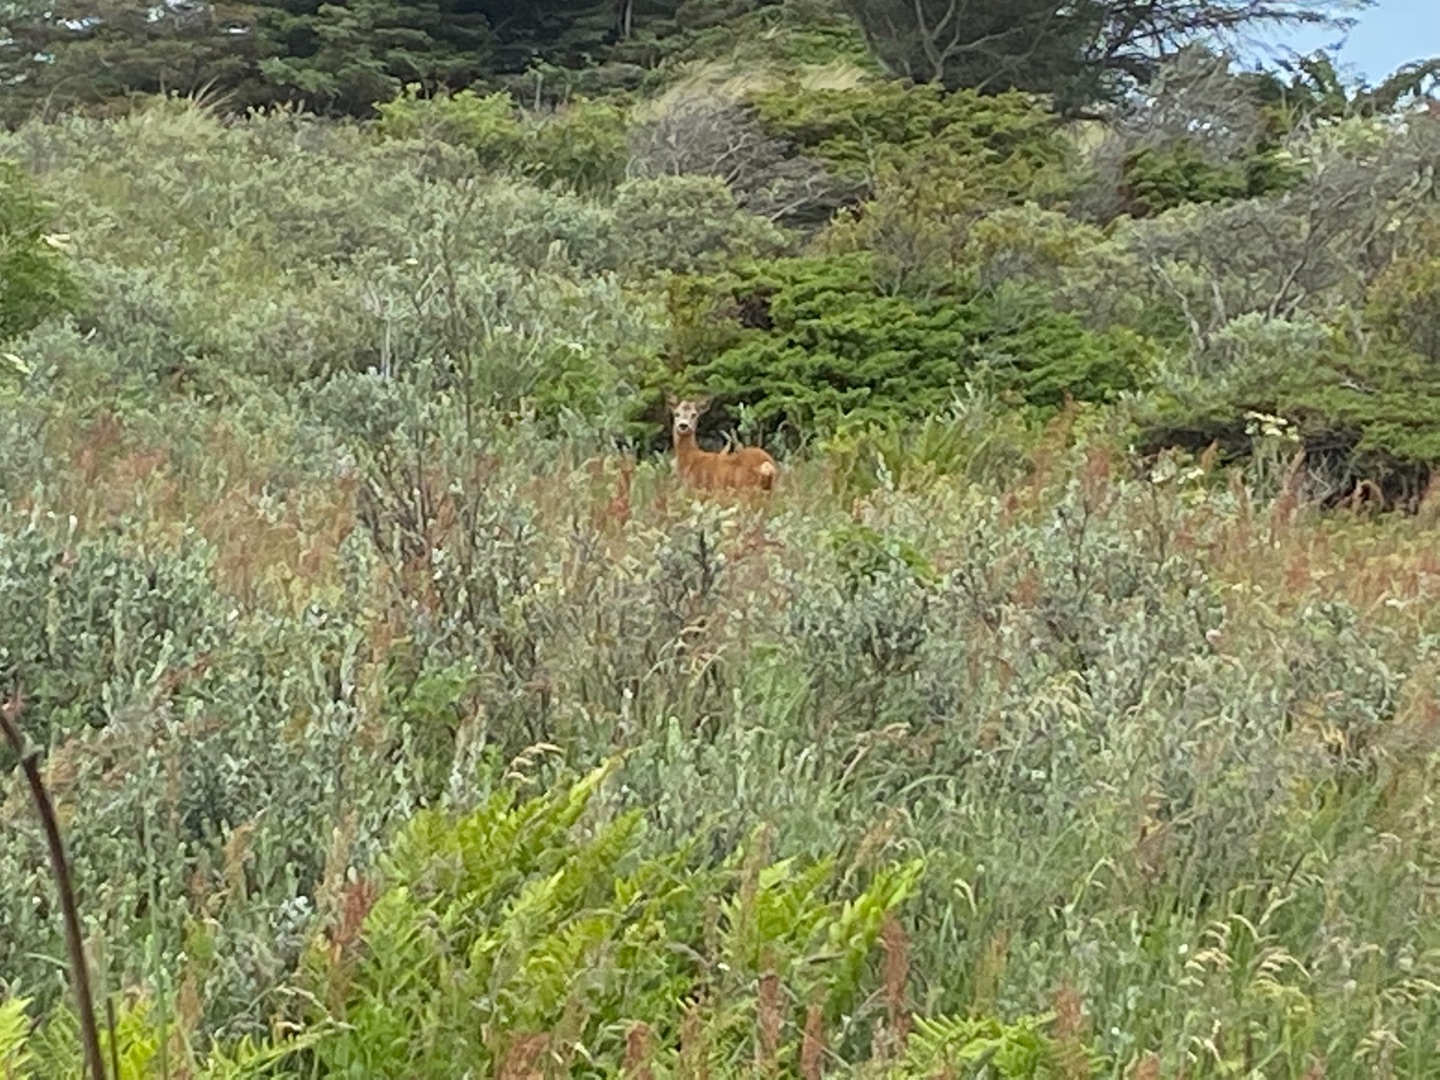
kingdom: Animalia
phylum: Chordata
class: Mammalia
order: Artiodactyla
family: Cervidae
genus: Capreolus
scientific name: Capreolus capreolus
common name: Rådyr
